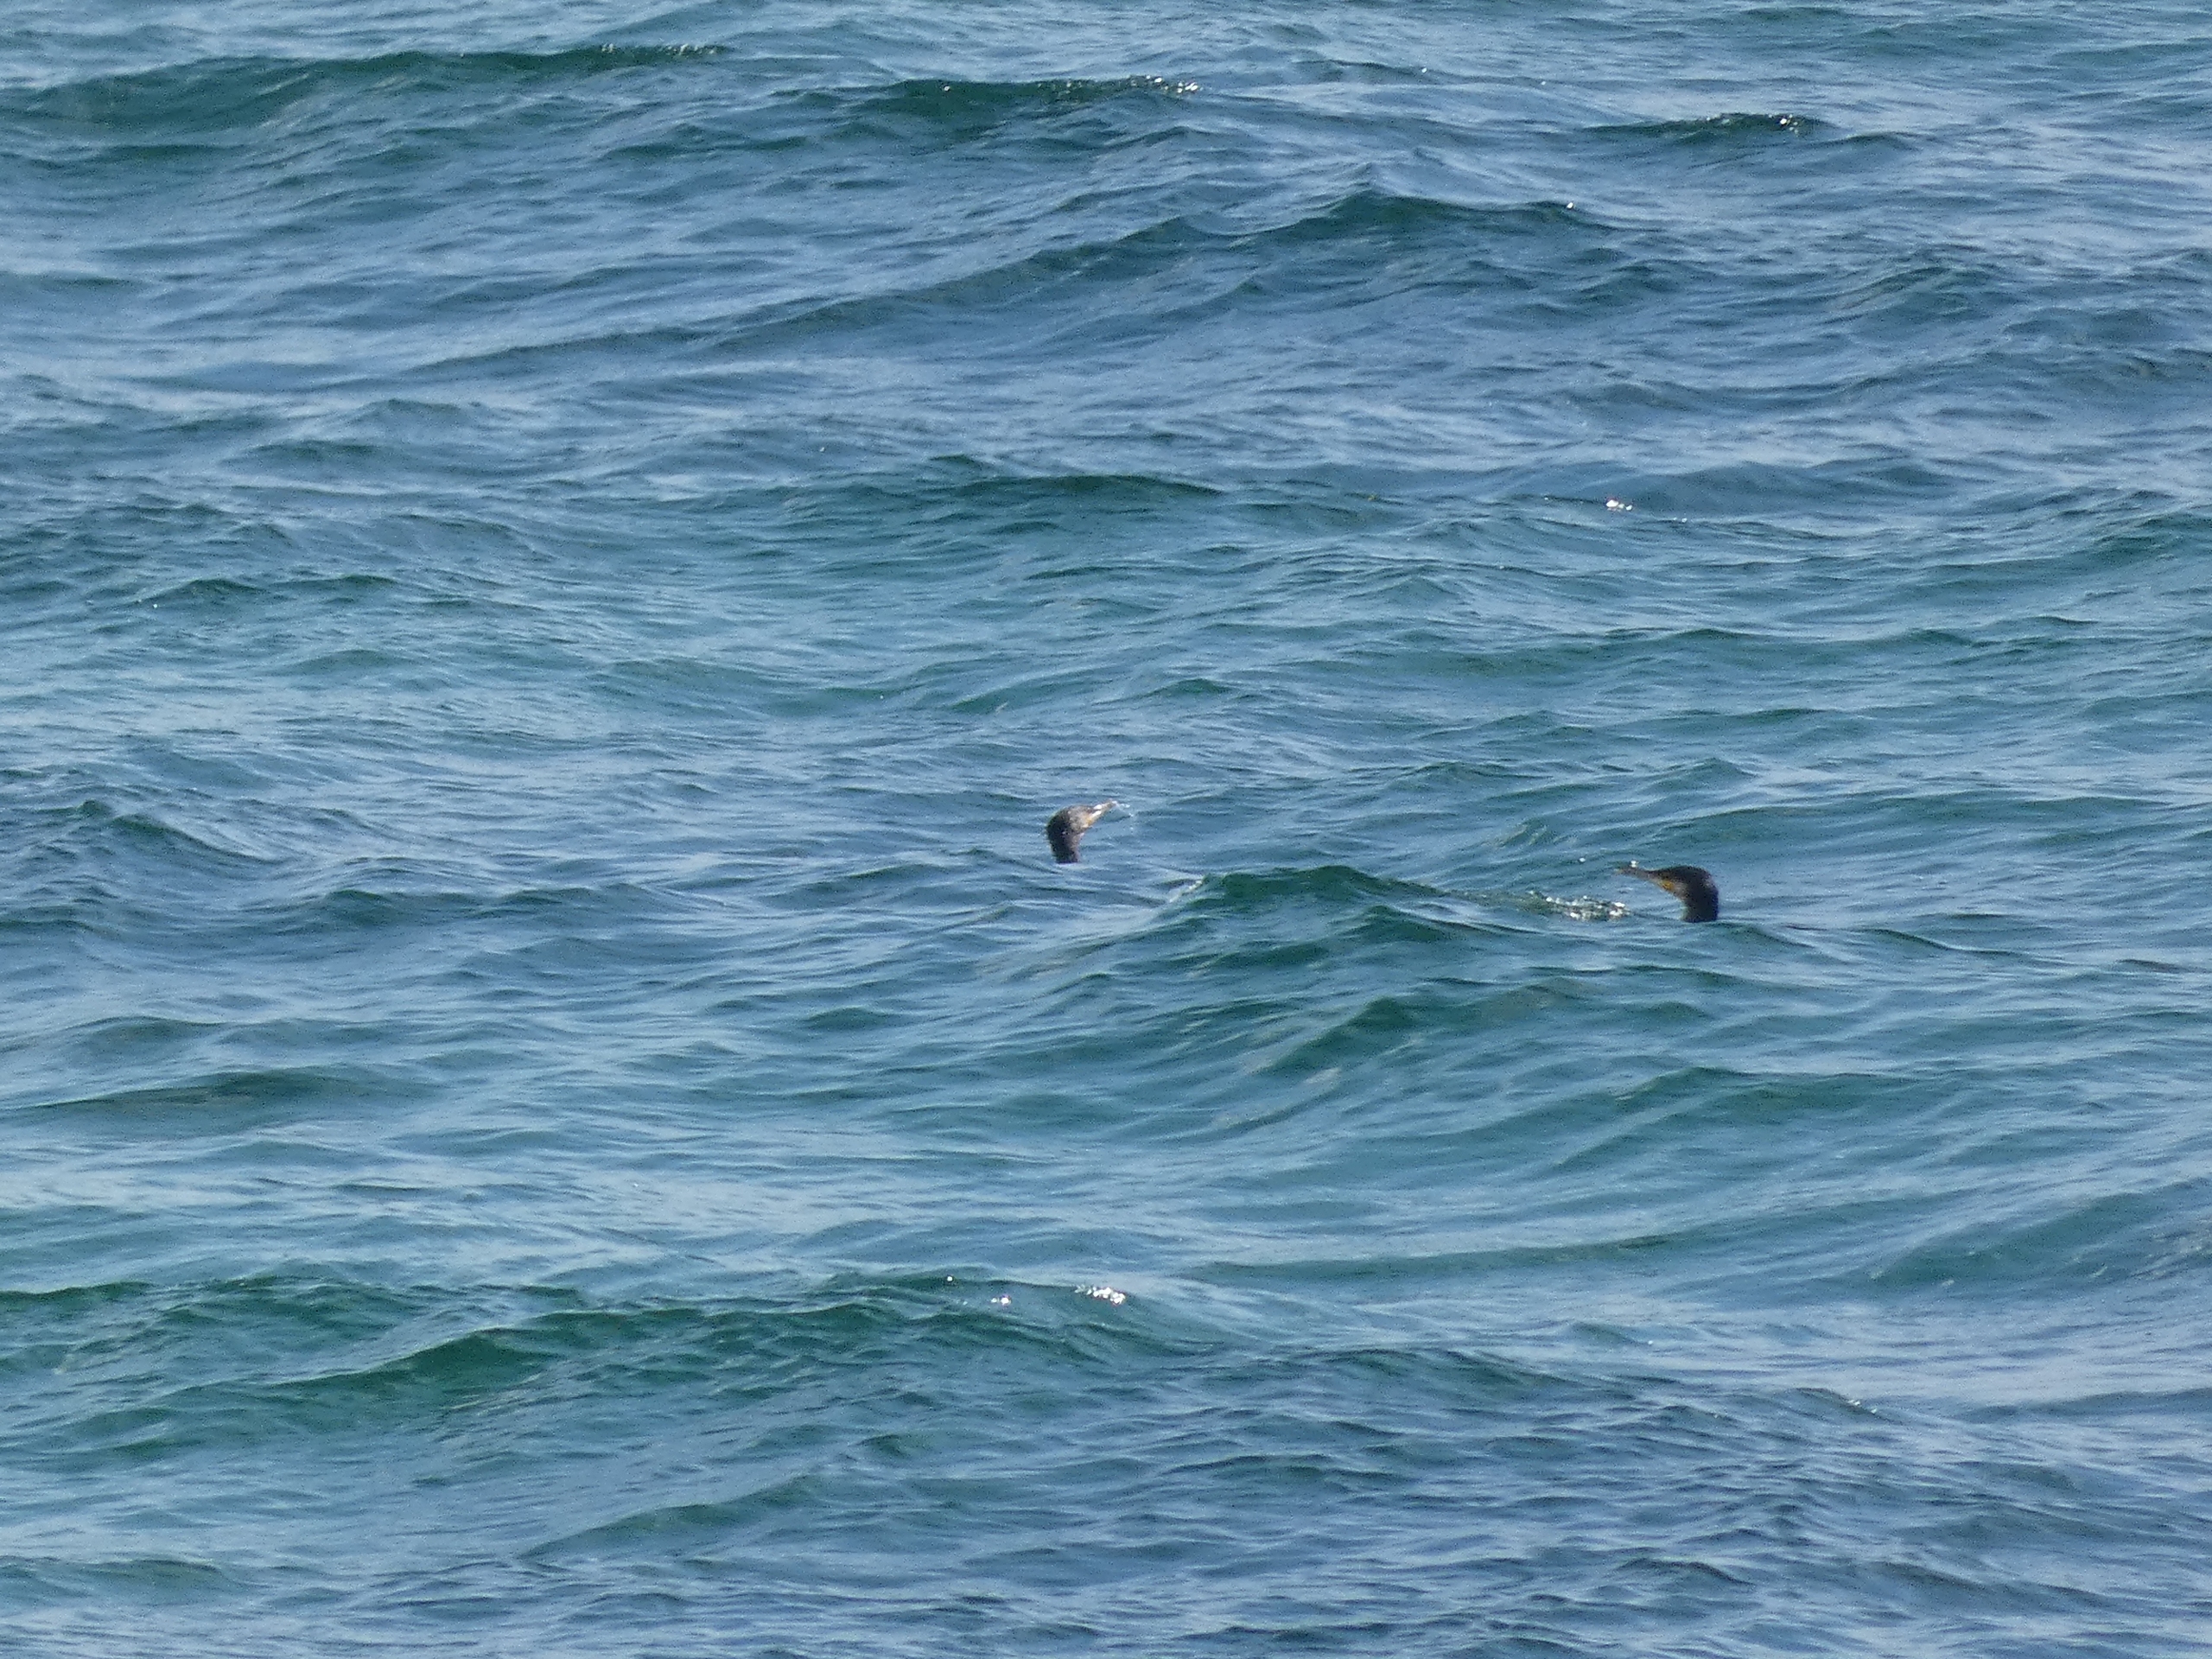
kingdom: Animalia
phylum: Chordata
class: Aves
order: Suliformes
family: Phalacrocoracidae
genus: Phalacrocorax
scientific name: Phalacrocorax carbo
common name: Skarv
